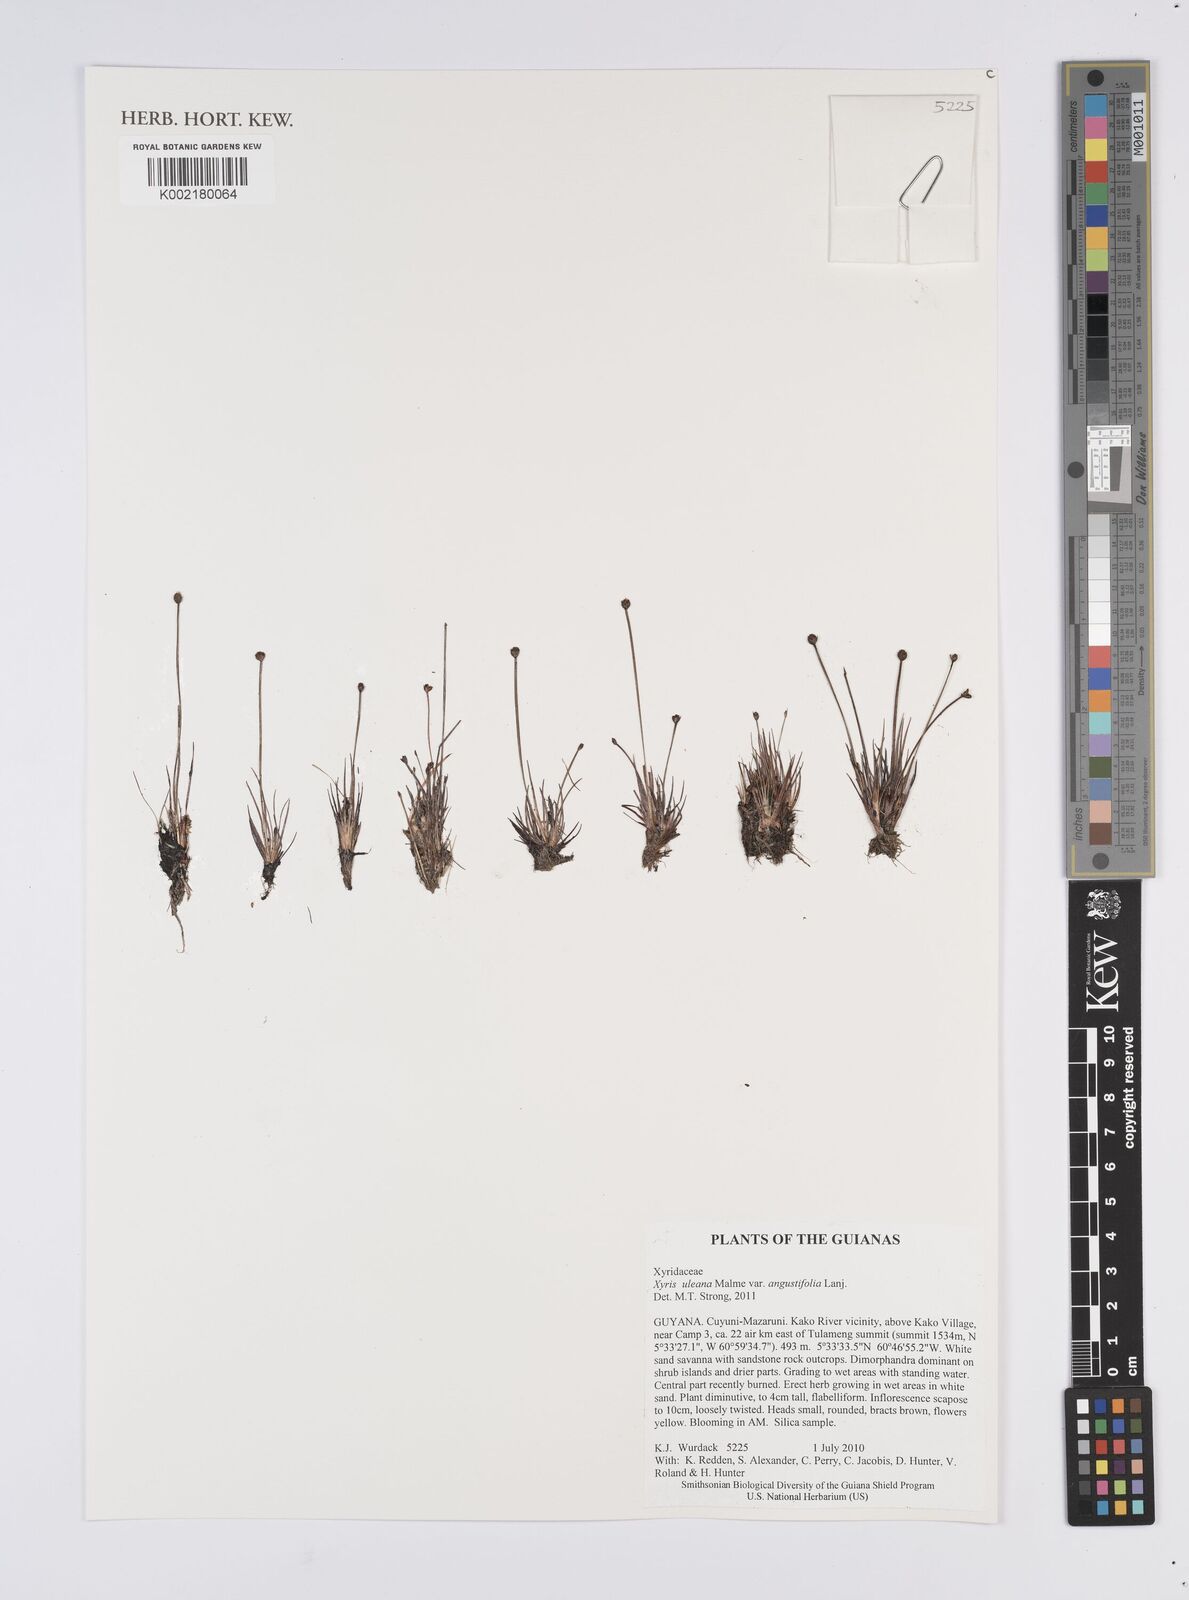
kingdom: Plantae
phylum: Tracheophyta
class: Liliopsida
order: Poales
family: Xyridaceae
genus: Xyris
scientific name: Xyris uleana
